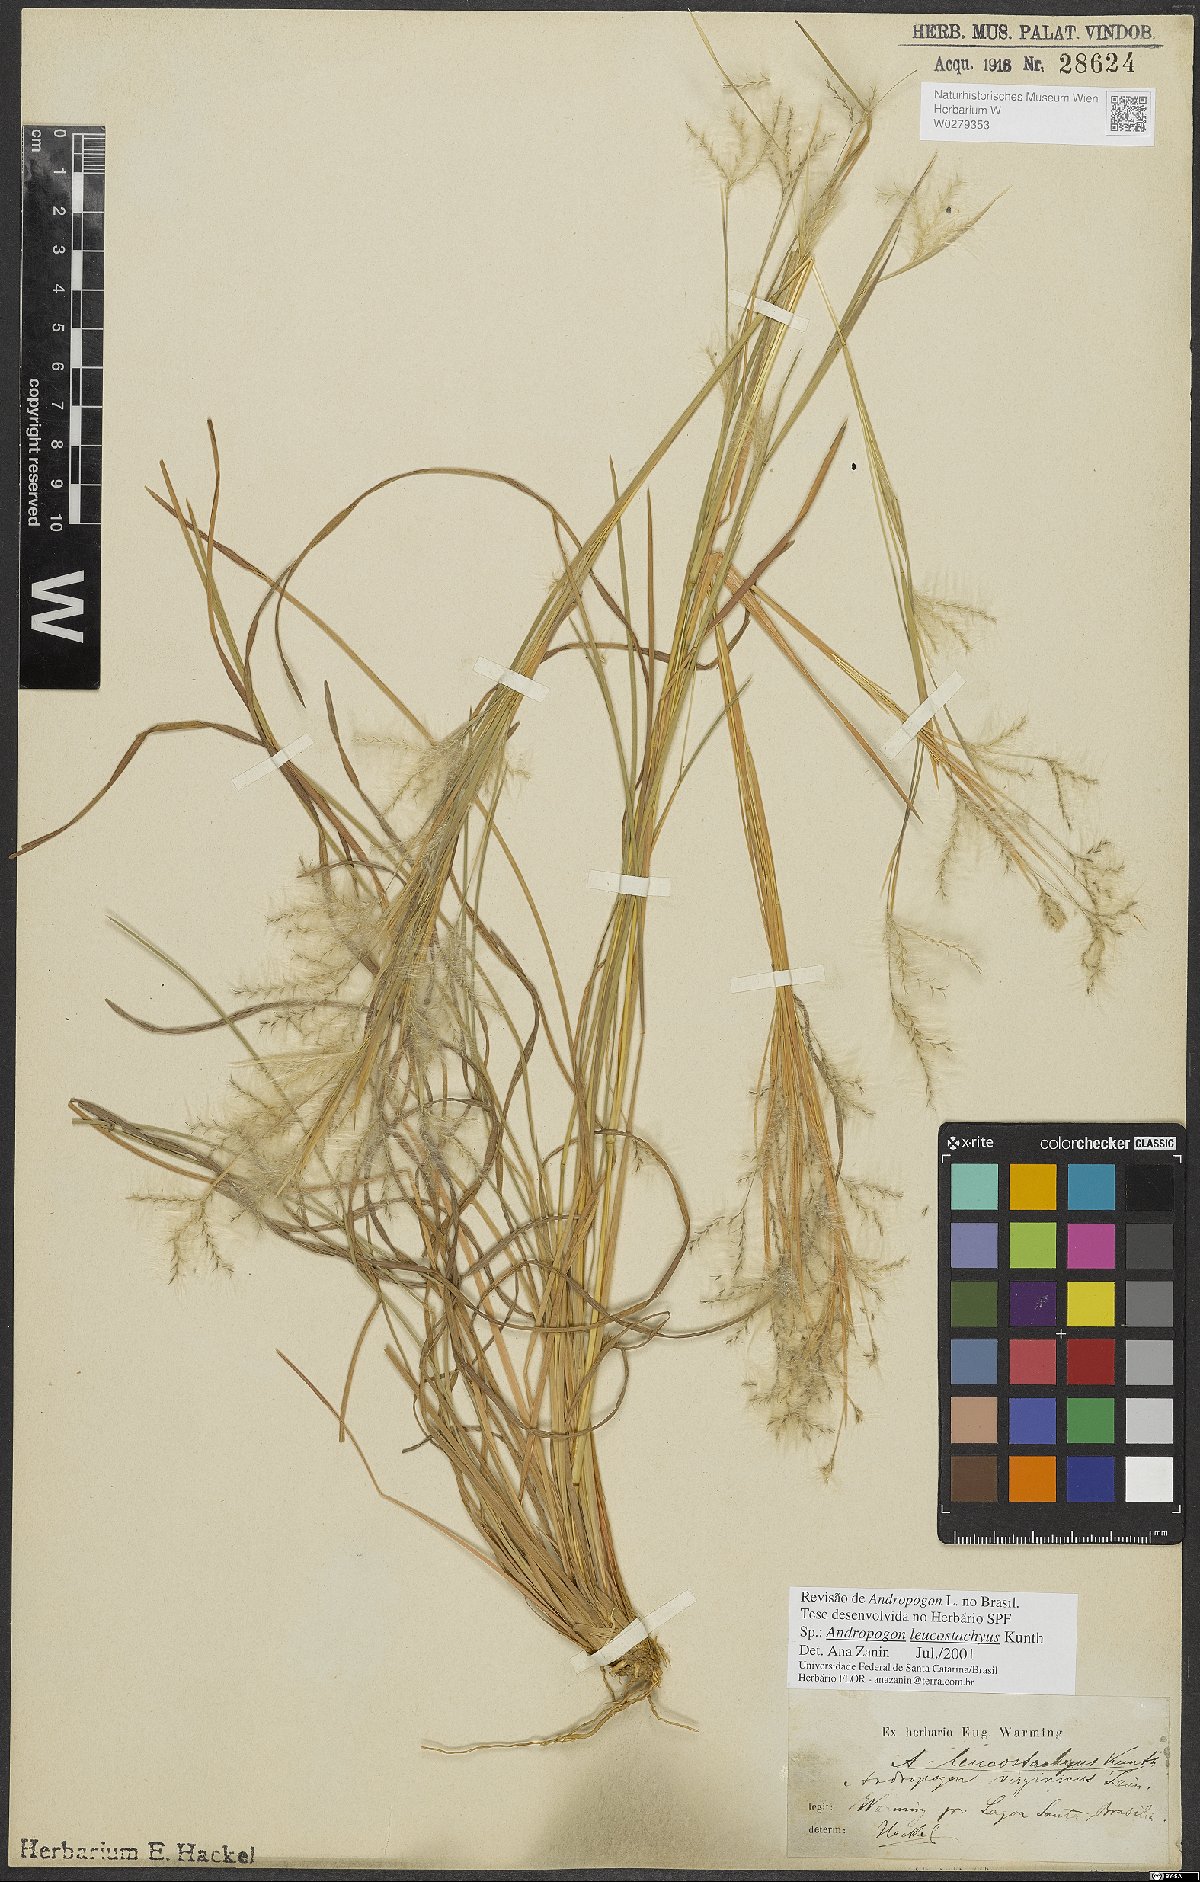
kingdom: Plantae
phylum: Tracheophyta
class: Liliopsida
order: Poales
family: Poaceae
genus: Andropogon
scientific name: Andropogon leucostachyus
